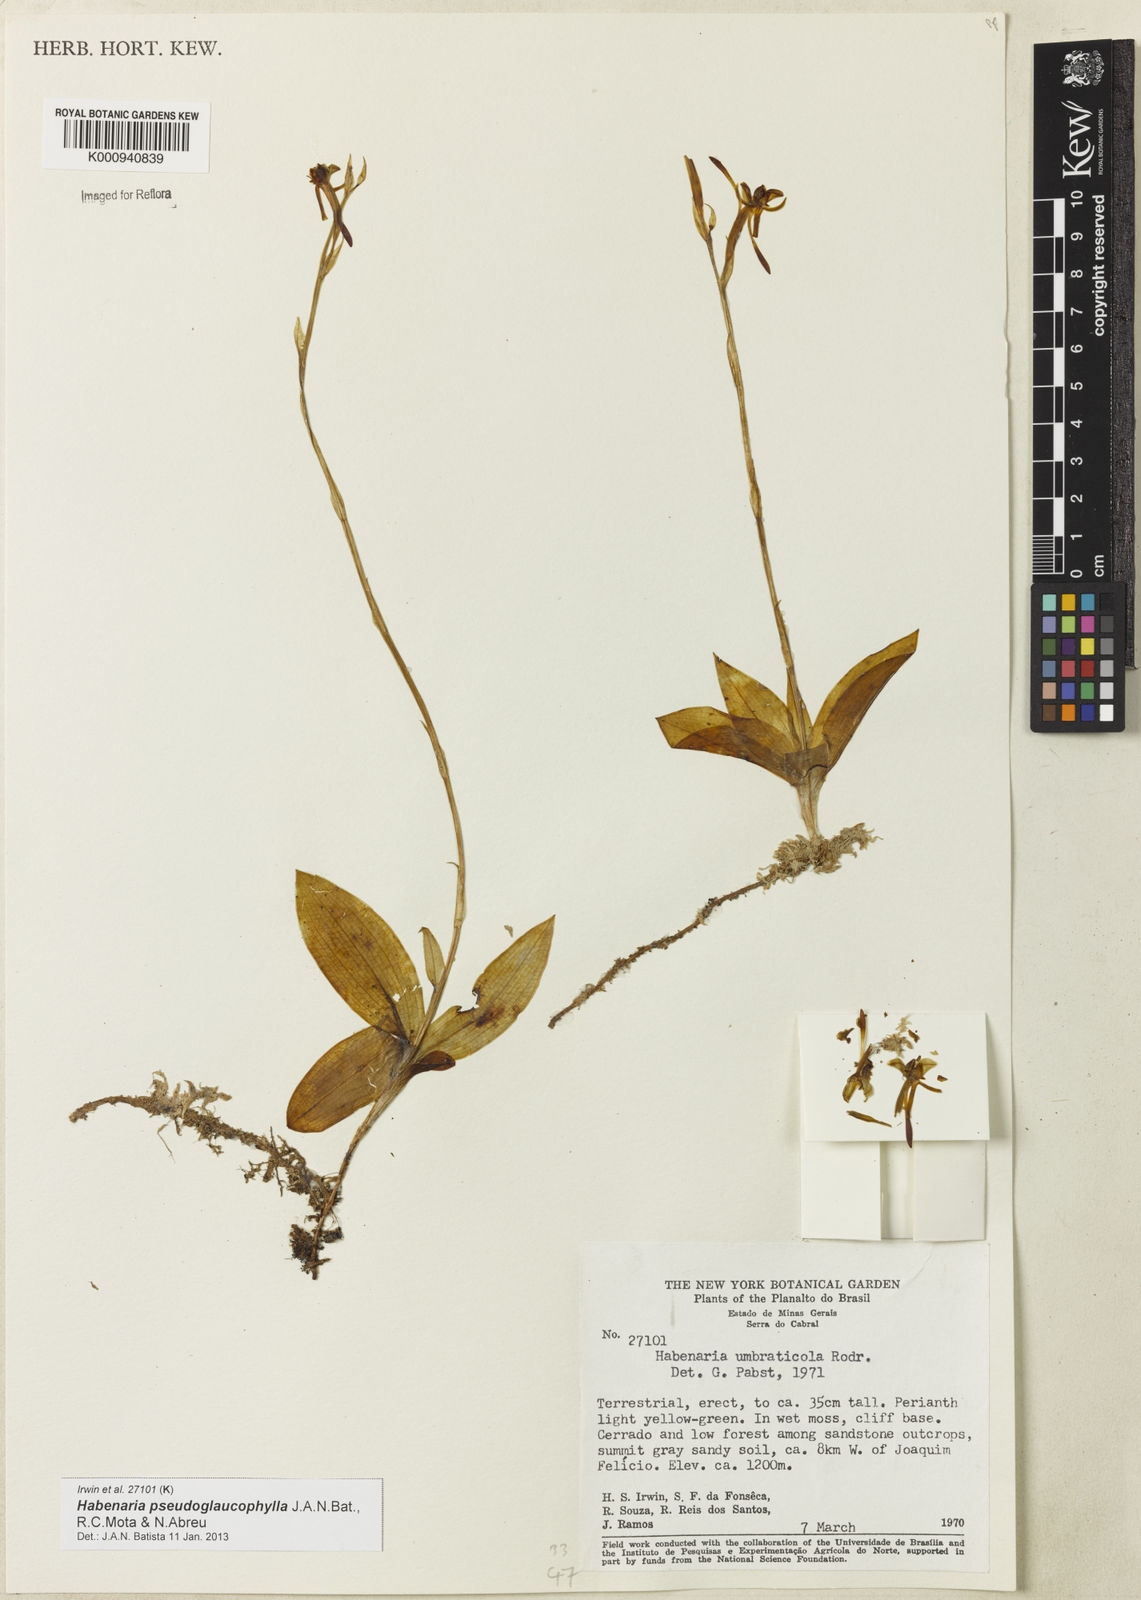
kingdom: Plantae
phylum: Tracheophyta
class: Liliopsida
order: Asparagales
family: Orchidaceae
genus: Habenaria
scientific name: Habenaria pseudoglaucophylla
